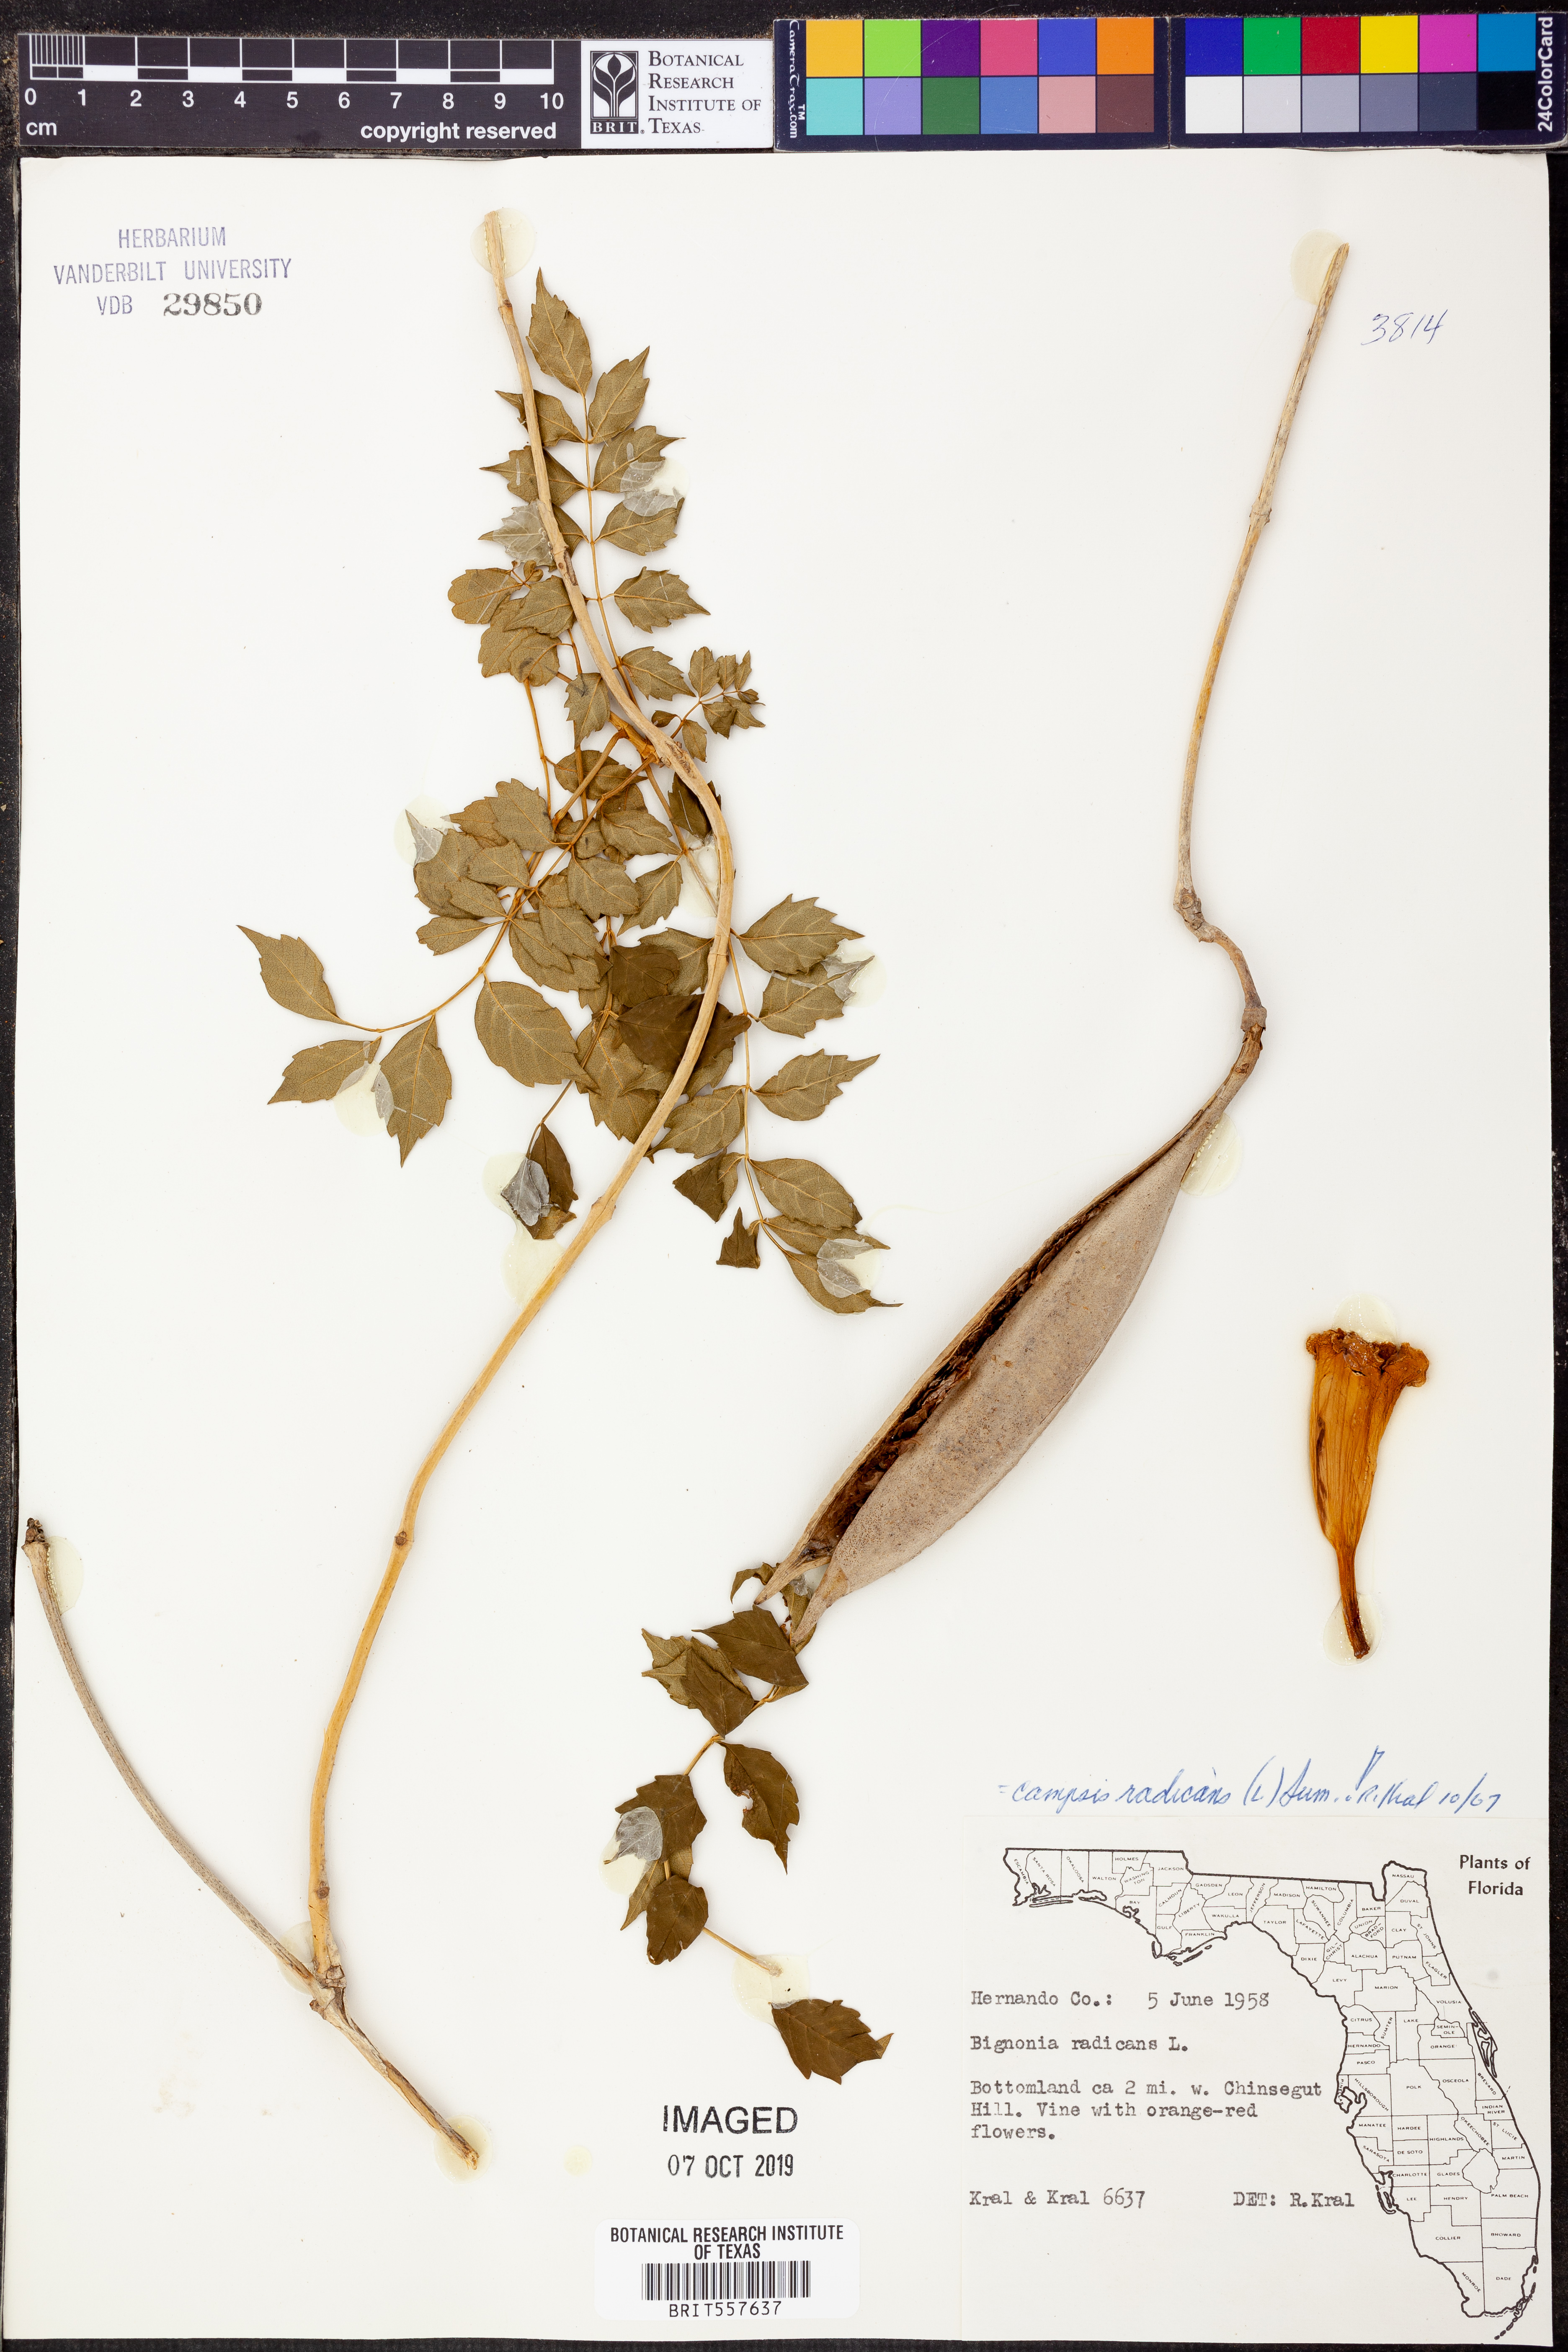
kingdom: Plantae
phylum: Tracheophyta
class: Magnoliopsida
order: Lamiales
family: Bignoniaceae
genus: Campsis
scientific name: Campsis radicans
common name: Trumpet-creeper
